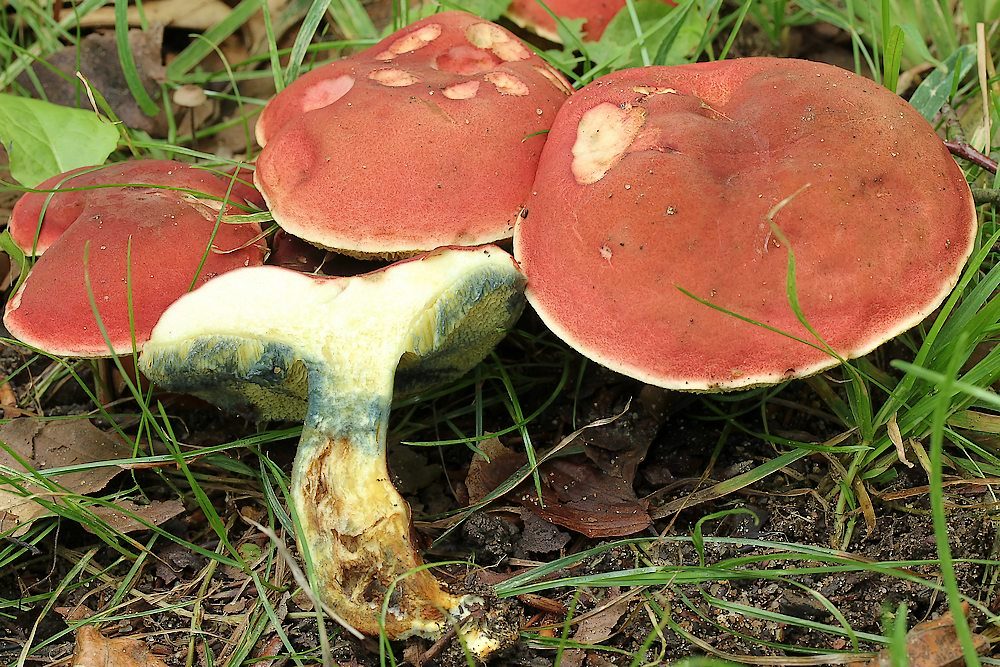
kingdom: Fungi
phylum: Basidiomycota
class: Agaricomycetes
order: Boletales
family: Boletaceae
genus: Hortiboletus
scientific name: Hortiboletus rubellus
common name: blodrød rørhat
